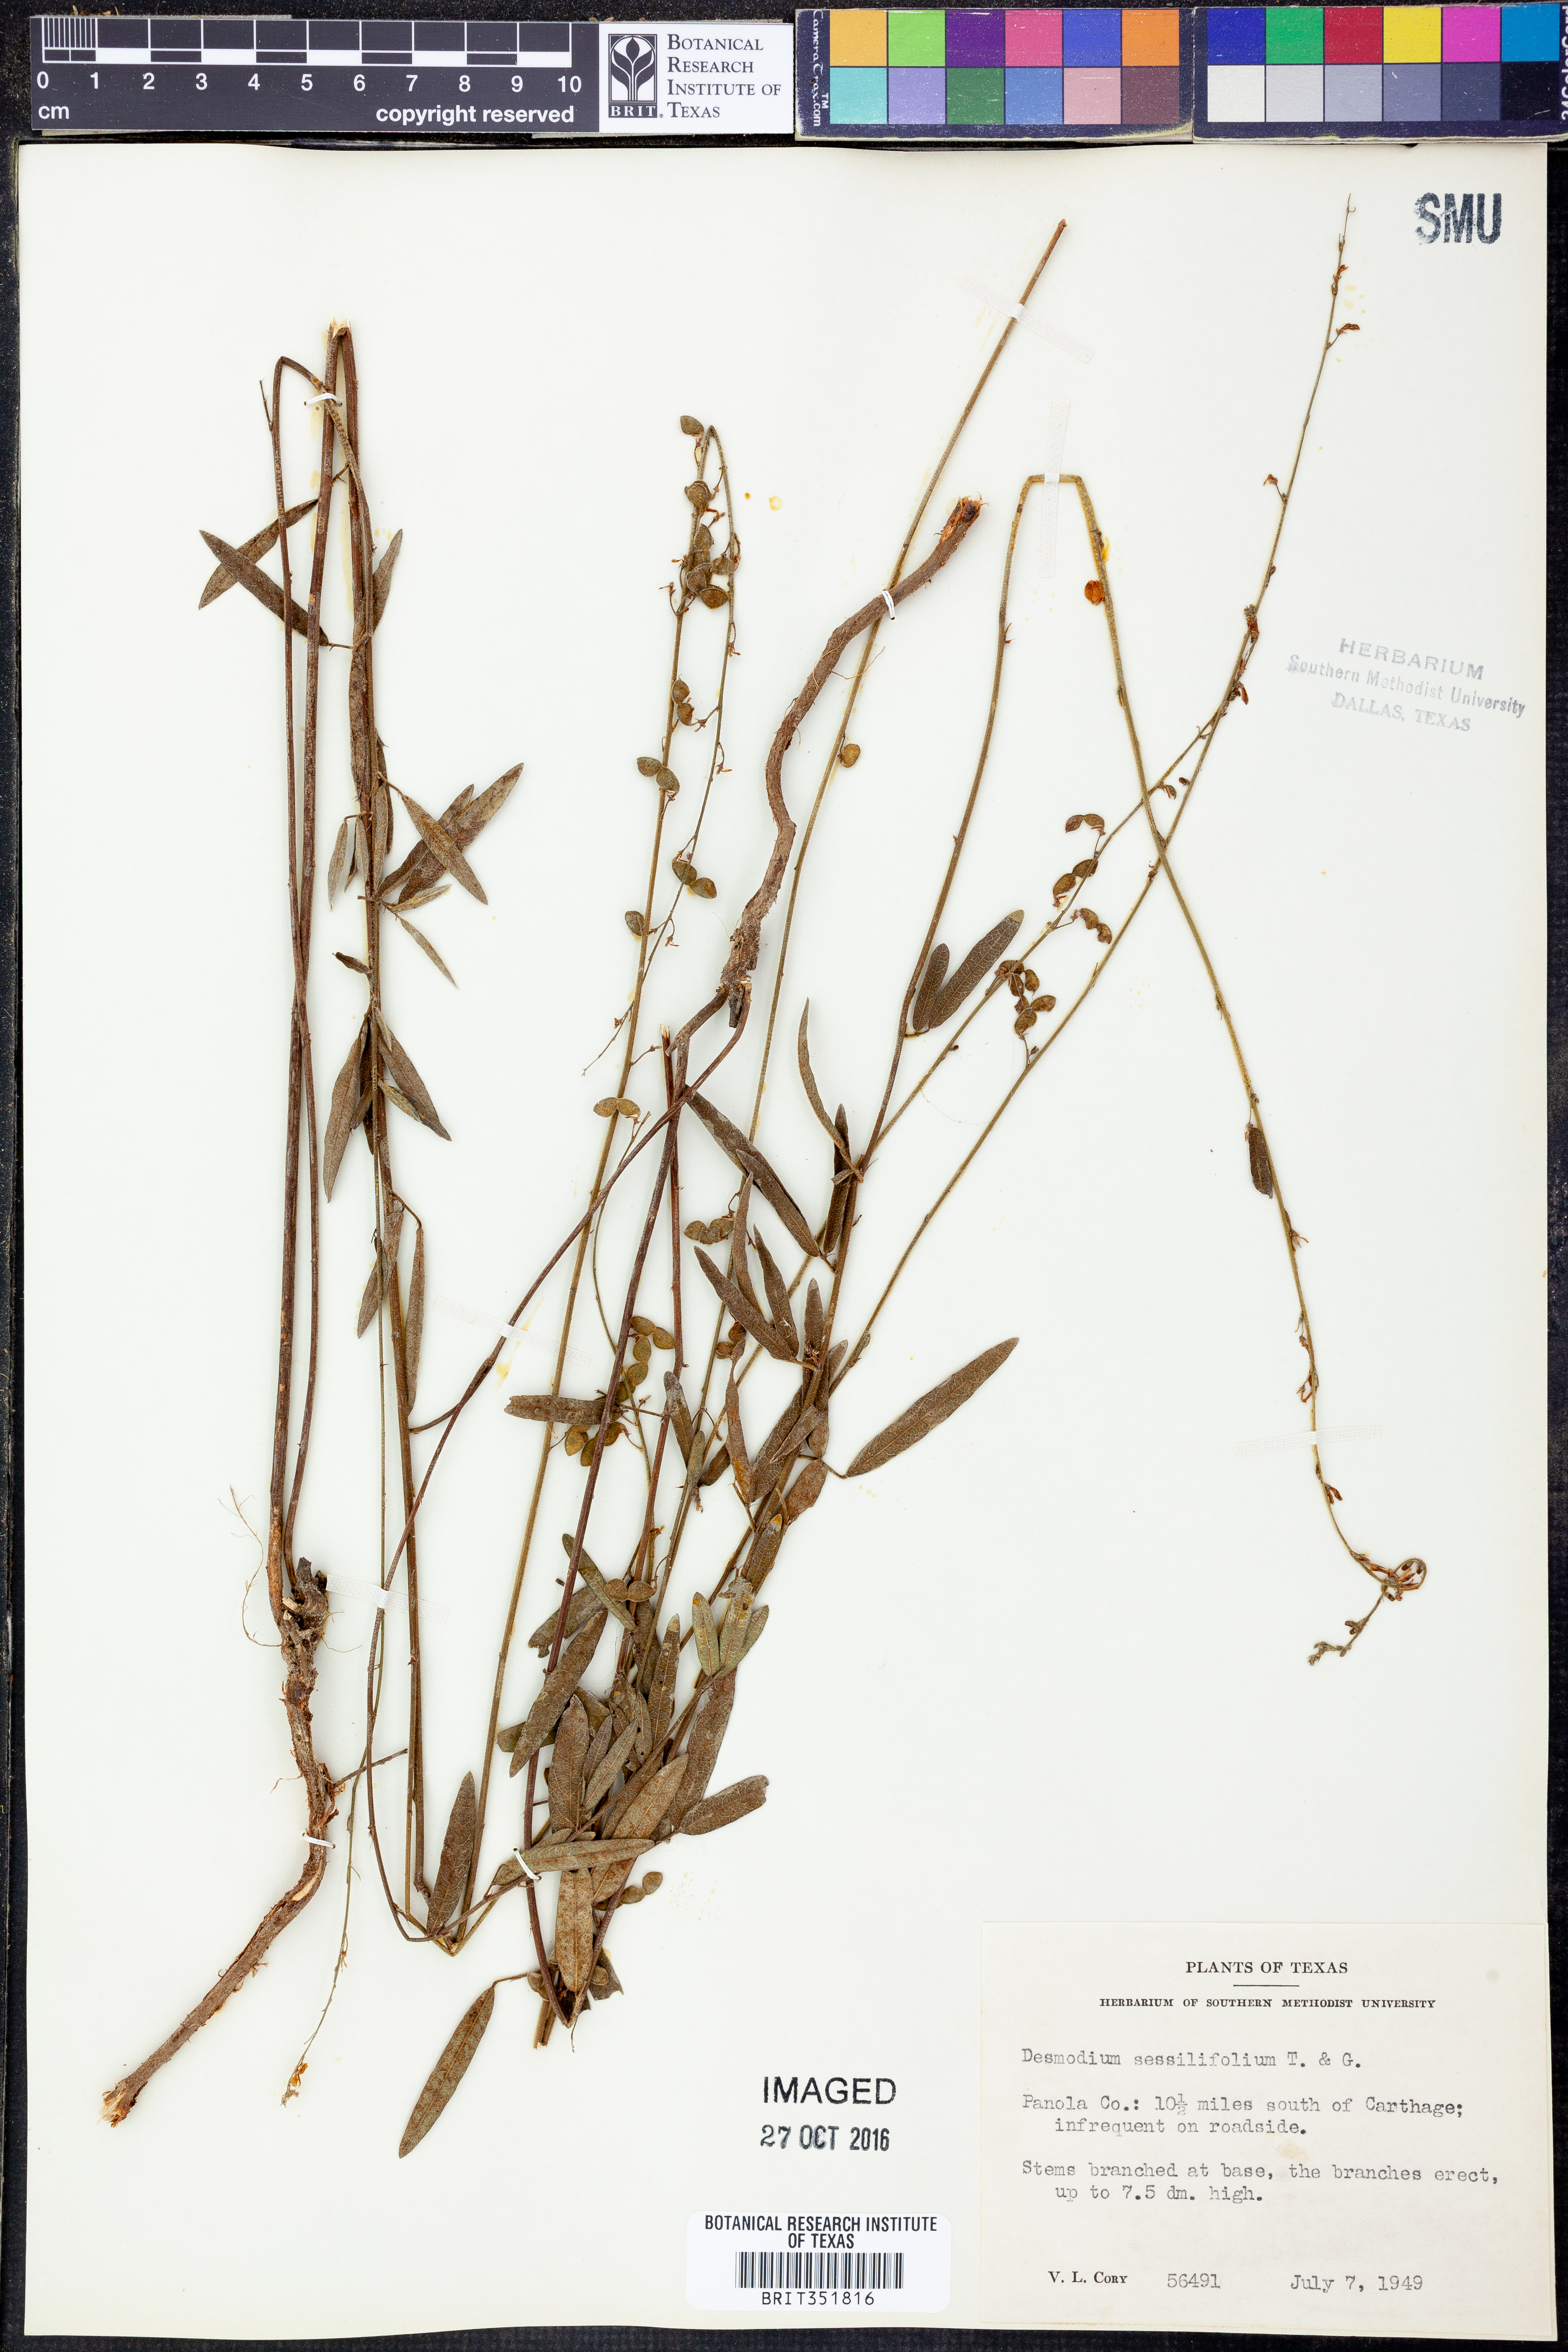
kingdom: Plantae
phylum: Tracheophyta
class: Magnoliopsida
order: Fabales
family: Fabaceae
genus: Desmodium
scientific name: Desmodium sessilifolium
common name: Sessile tick-clover
